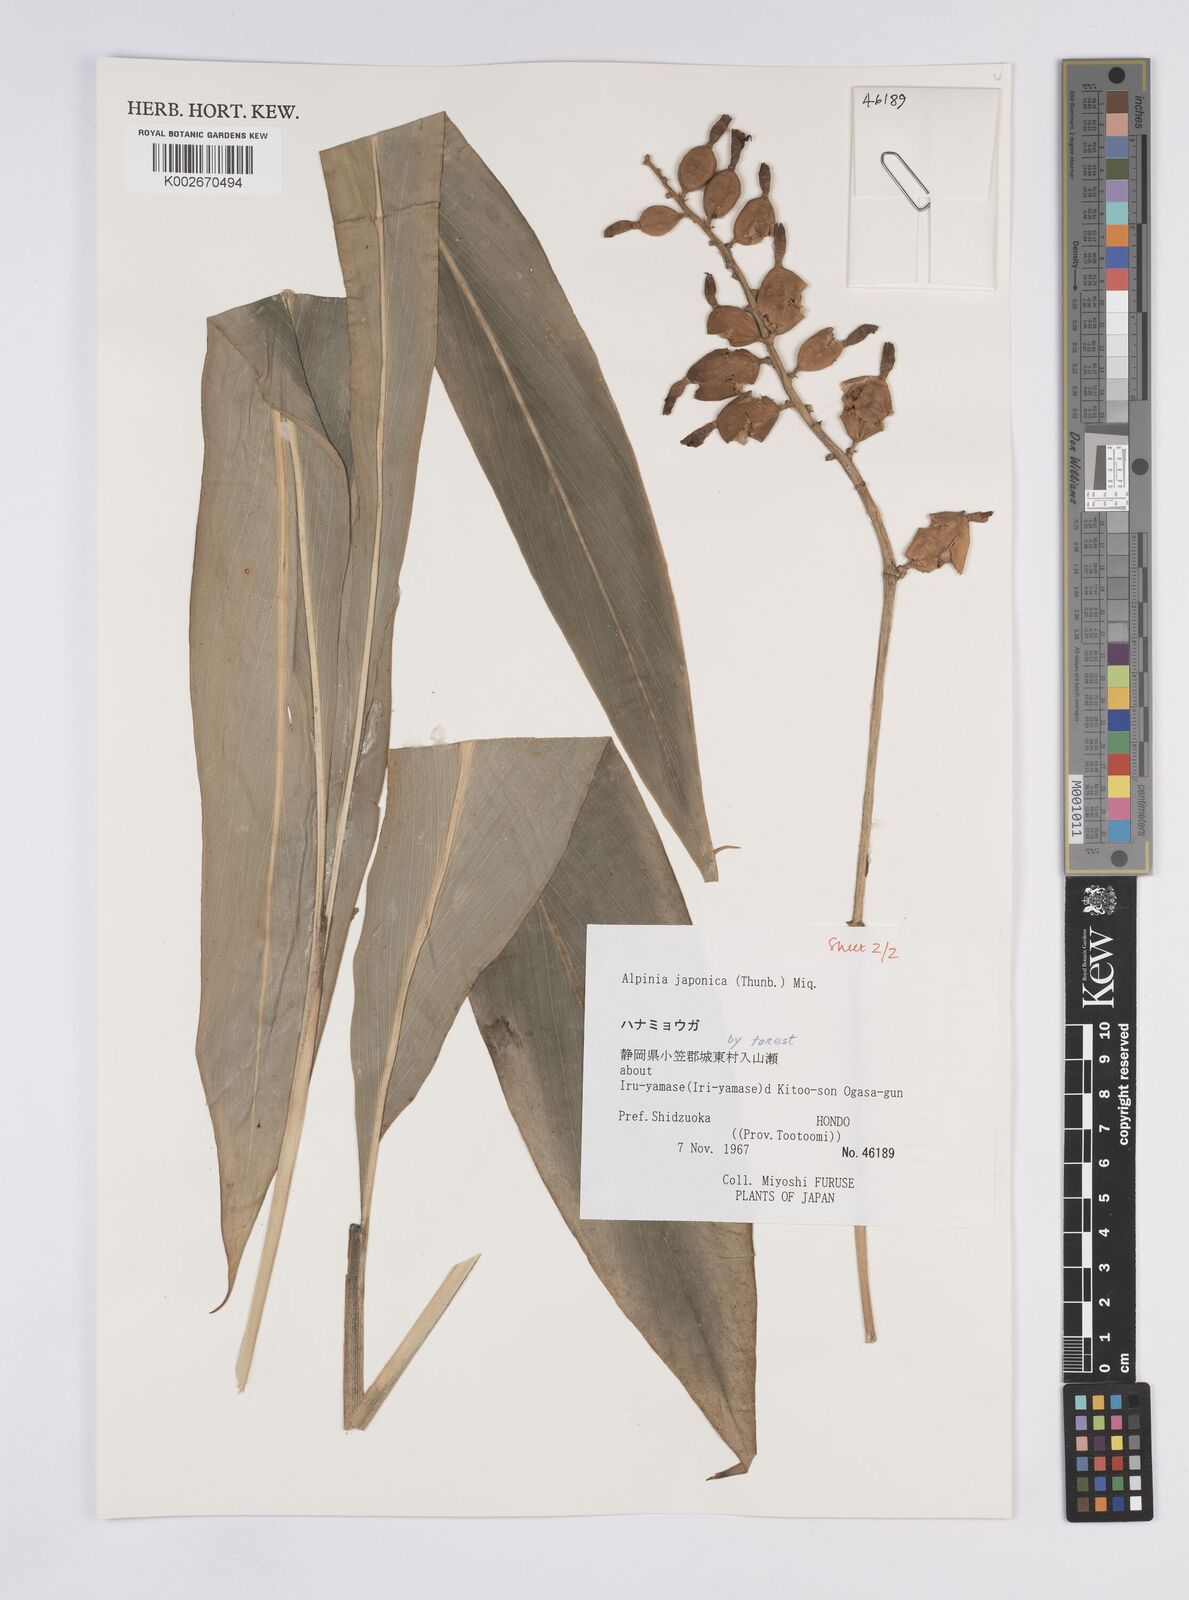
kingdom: Plantae
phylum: Tracheophyta
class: Liliopsida
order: Zingiberales
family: Zingiberaceae
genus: Alpinia
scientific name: Alpinia japonica
